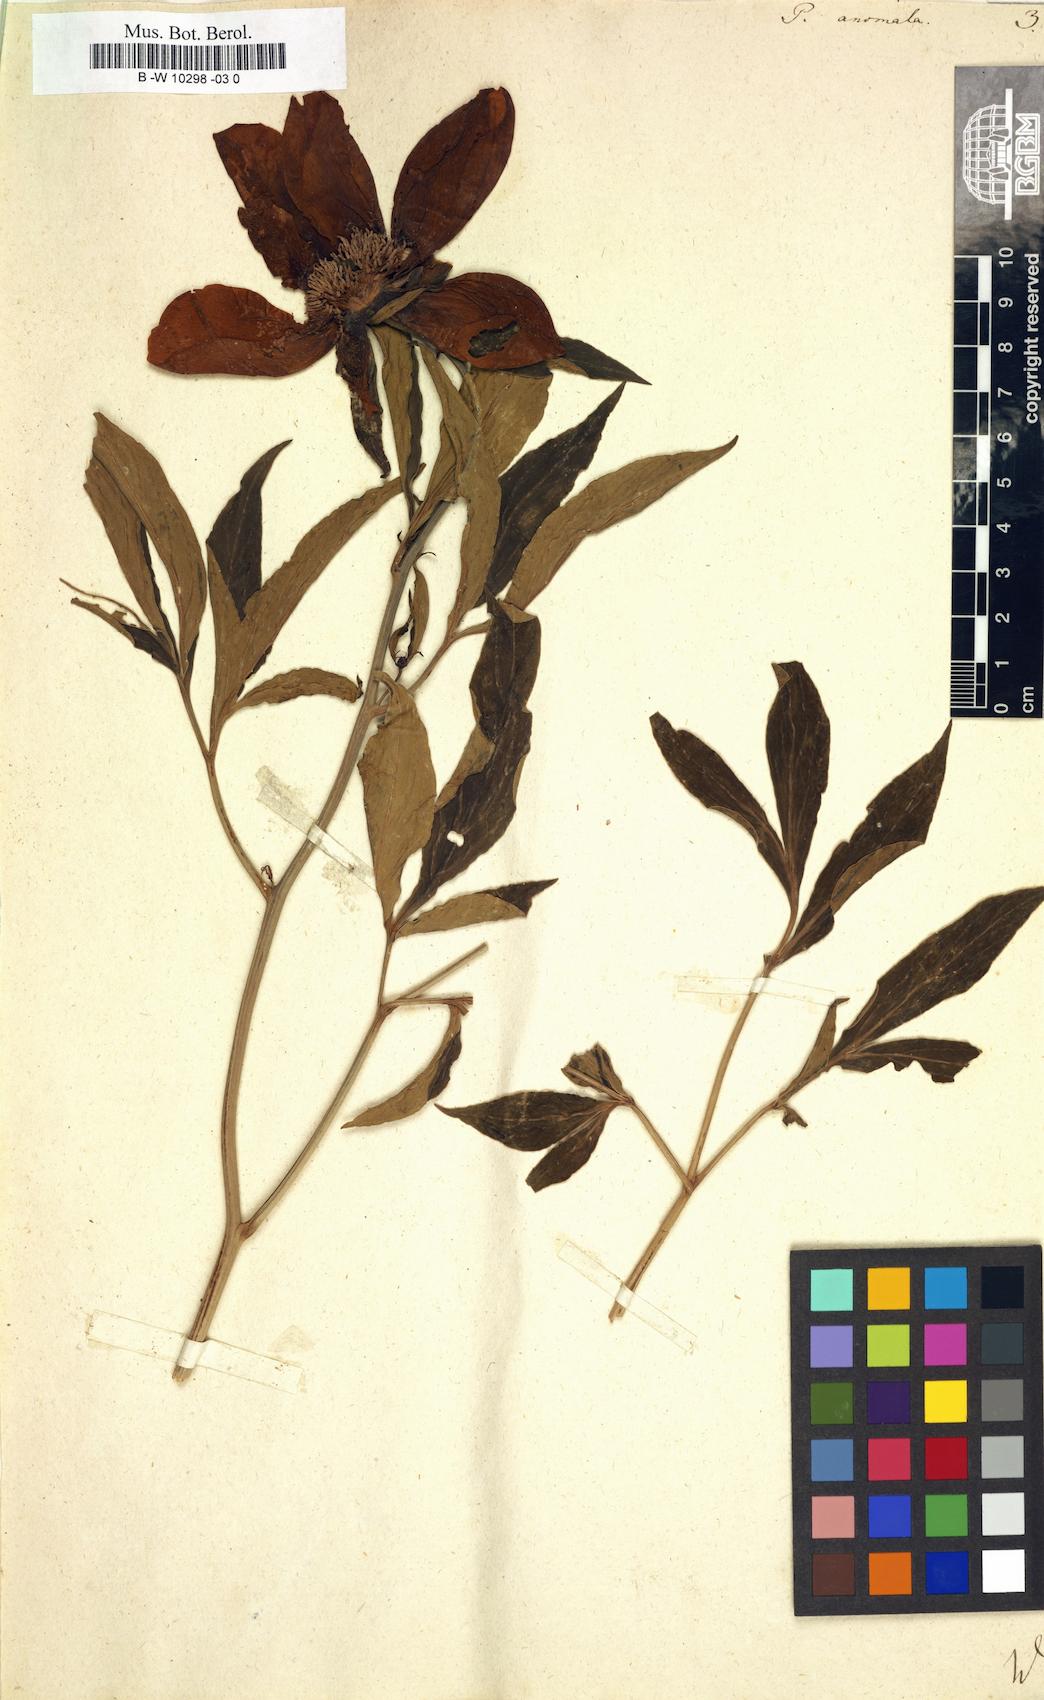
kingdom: Plantae
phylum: Tracheophyta
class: Magnoliopsida
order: Saxifragales
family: Paeoniaceae
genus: Paeonia
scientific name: Paeonia anomala
